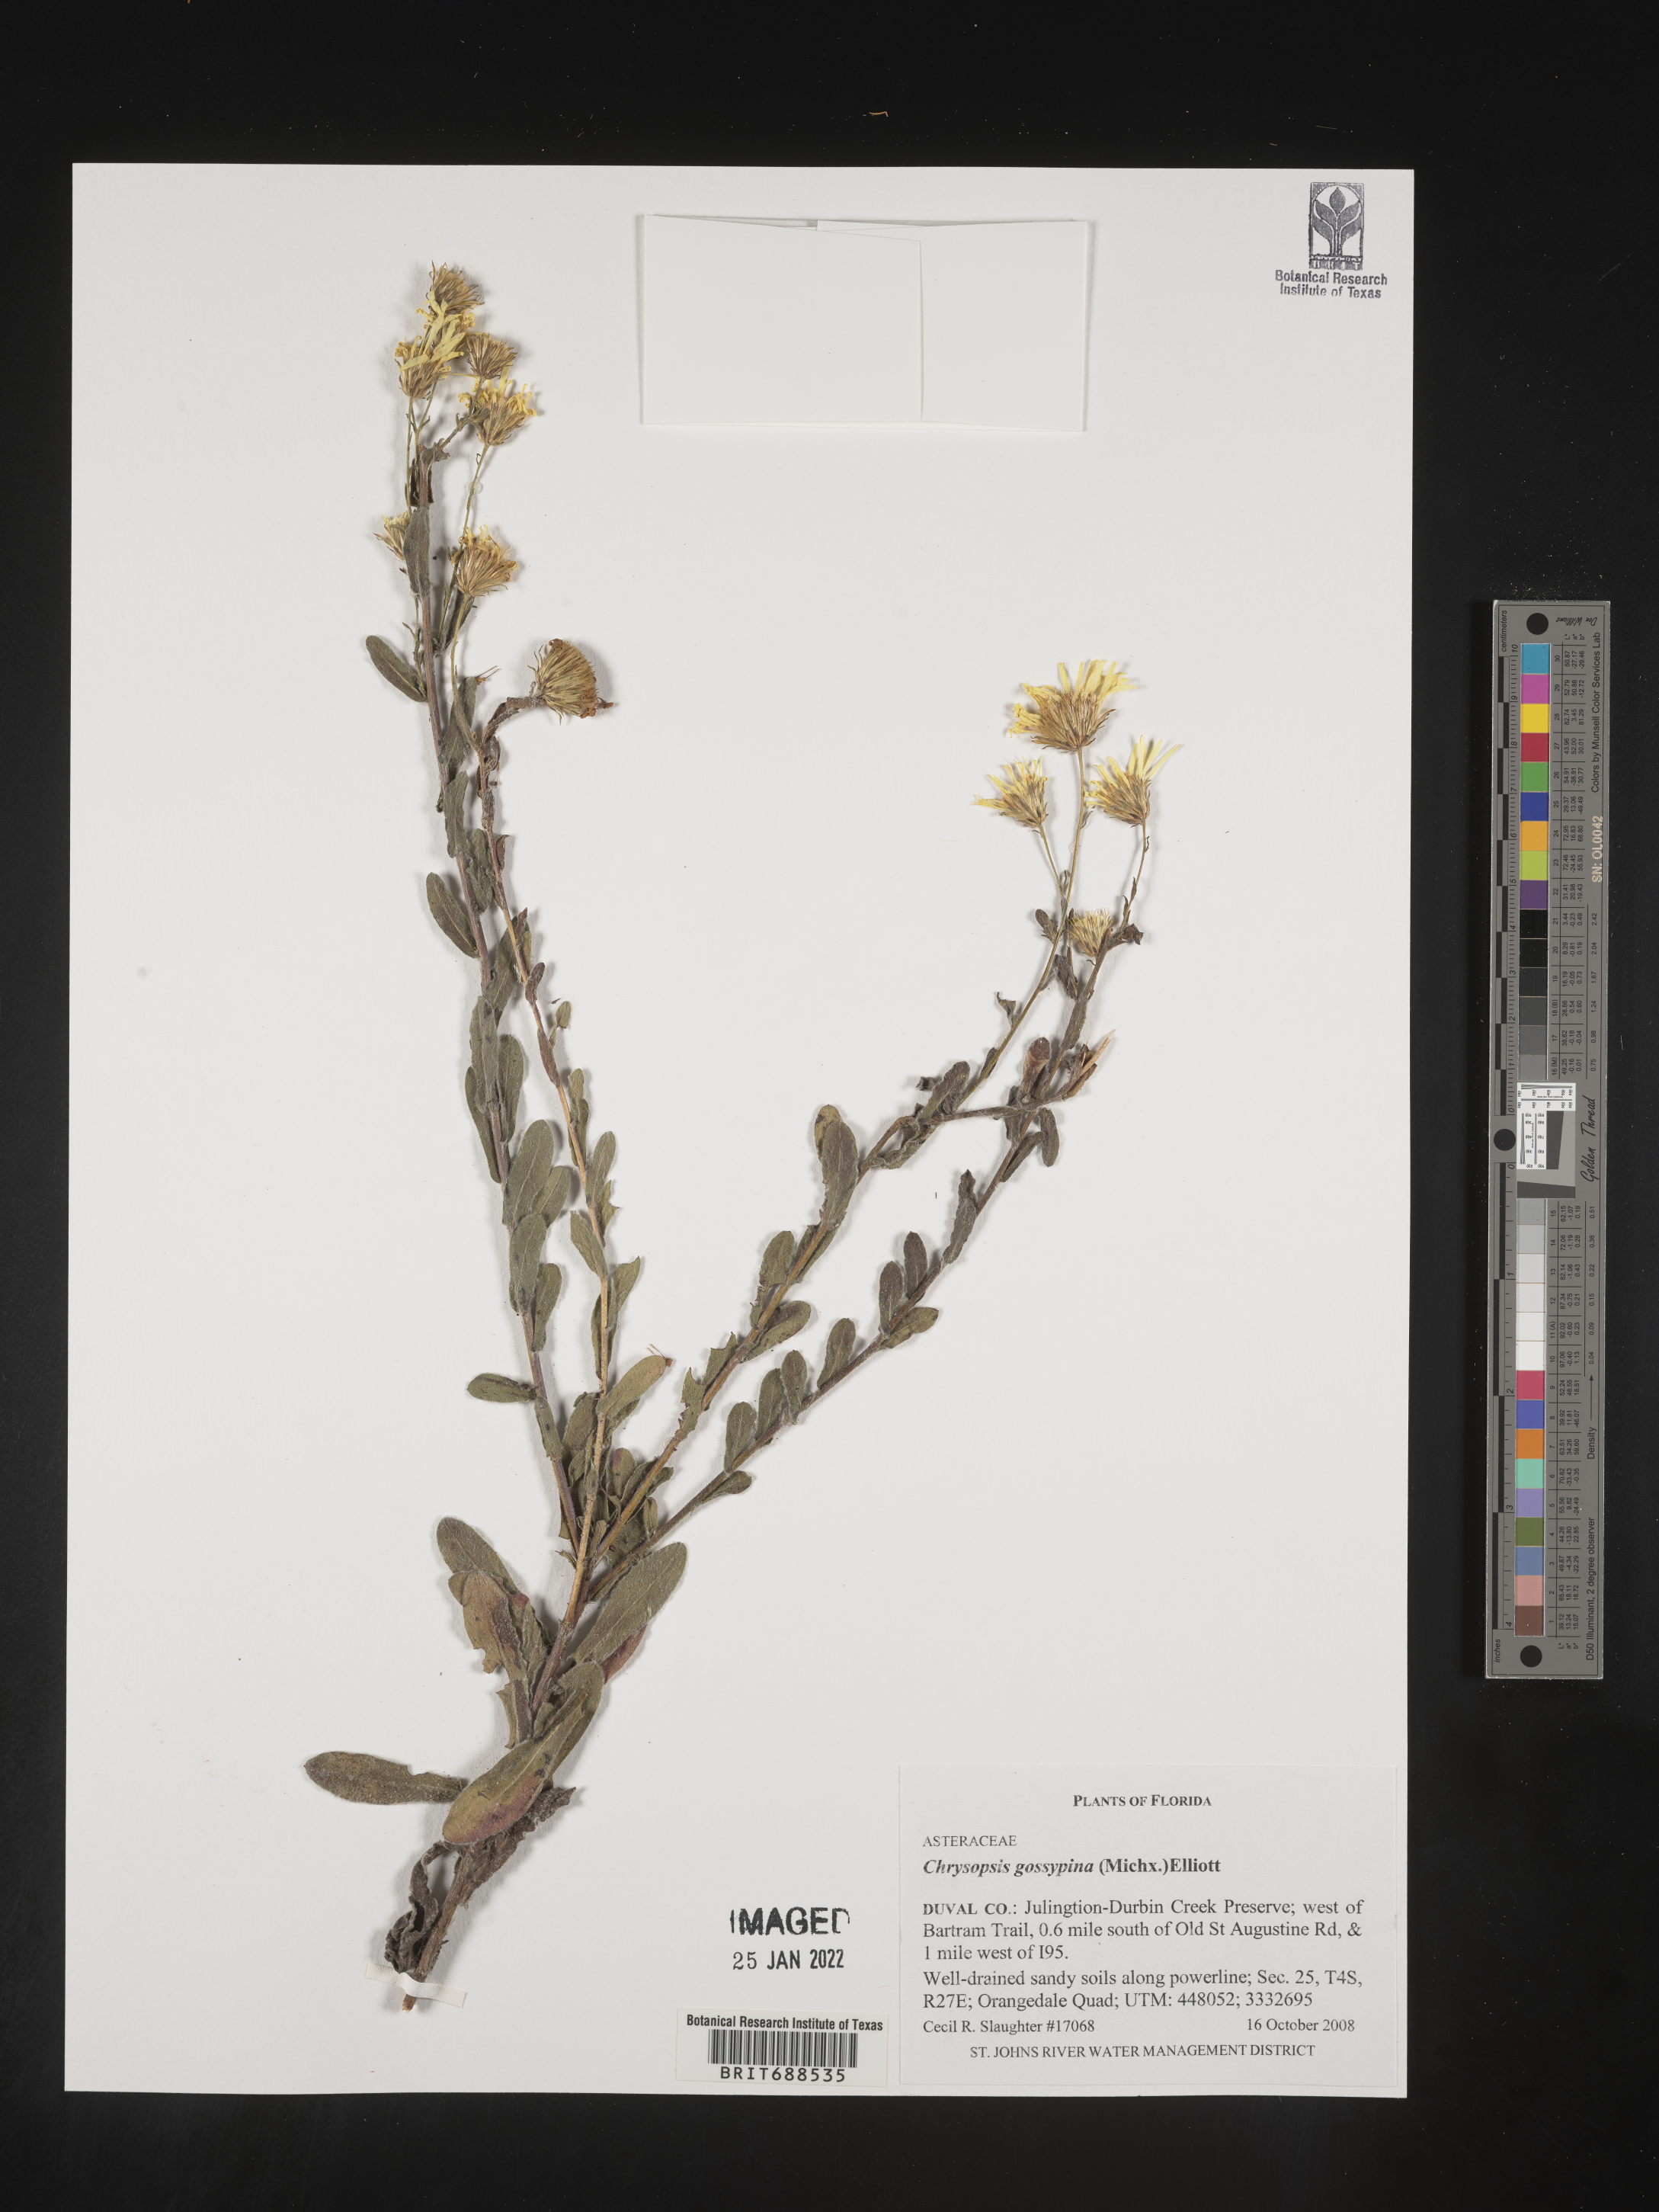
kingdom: Plantae
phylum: Tracheophyta
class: Magnoliopsida
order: Asterales
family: Asteraceae
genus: Chrysopsis
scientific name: Chrysopsis gossypina
